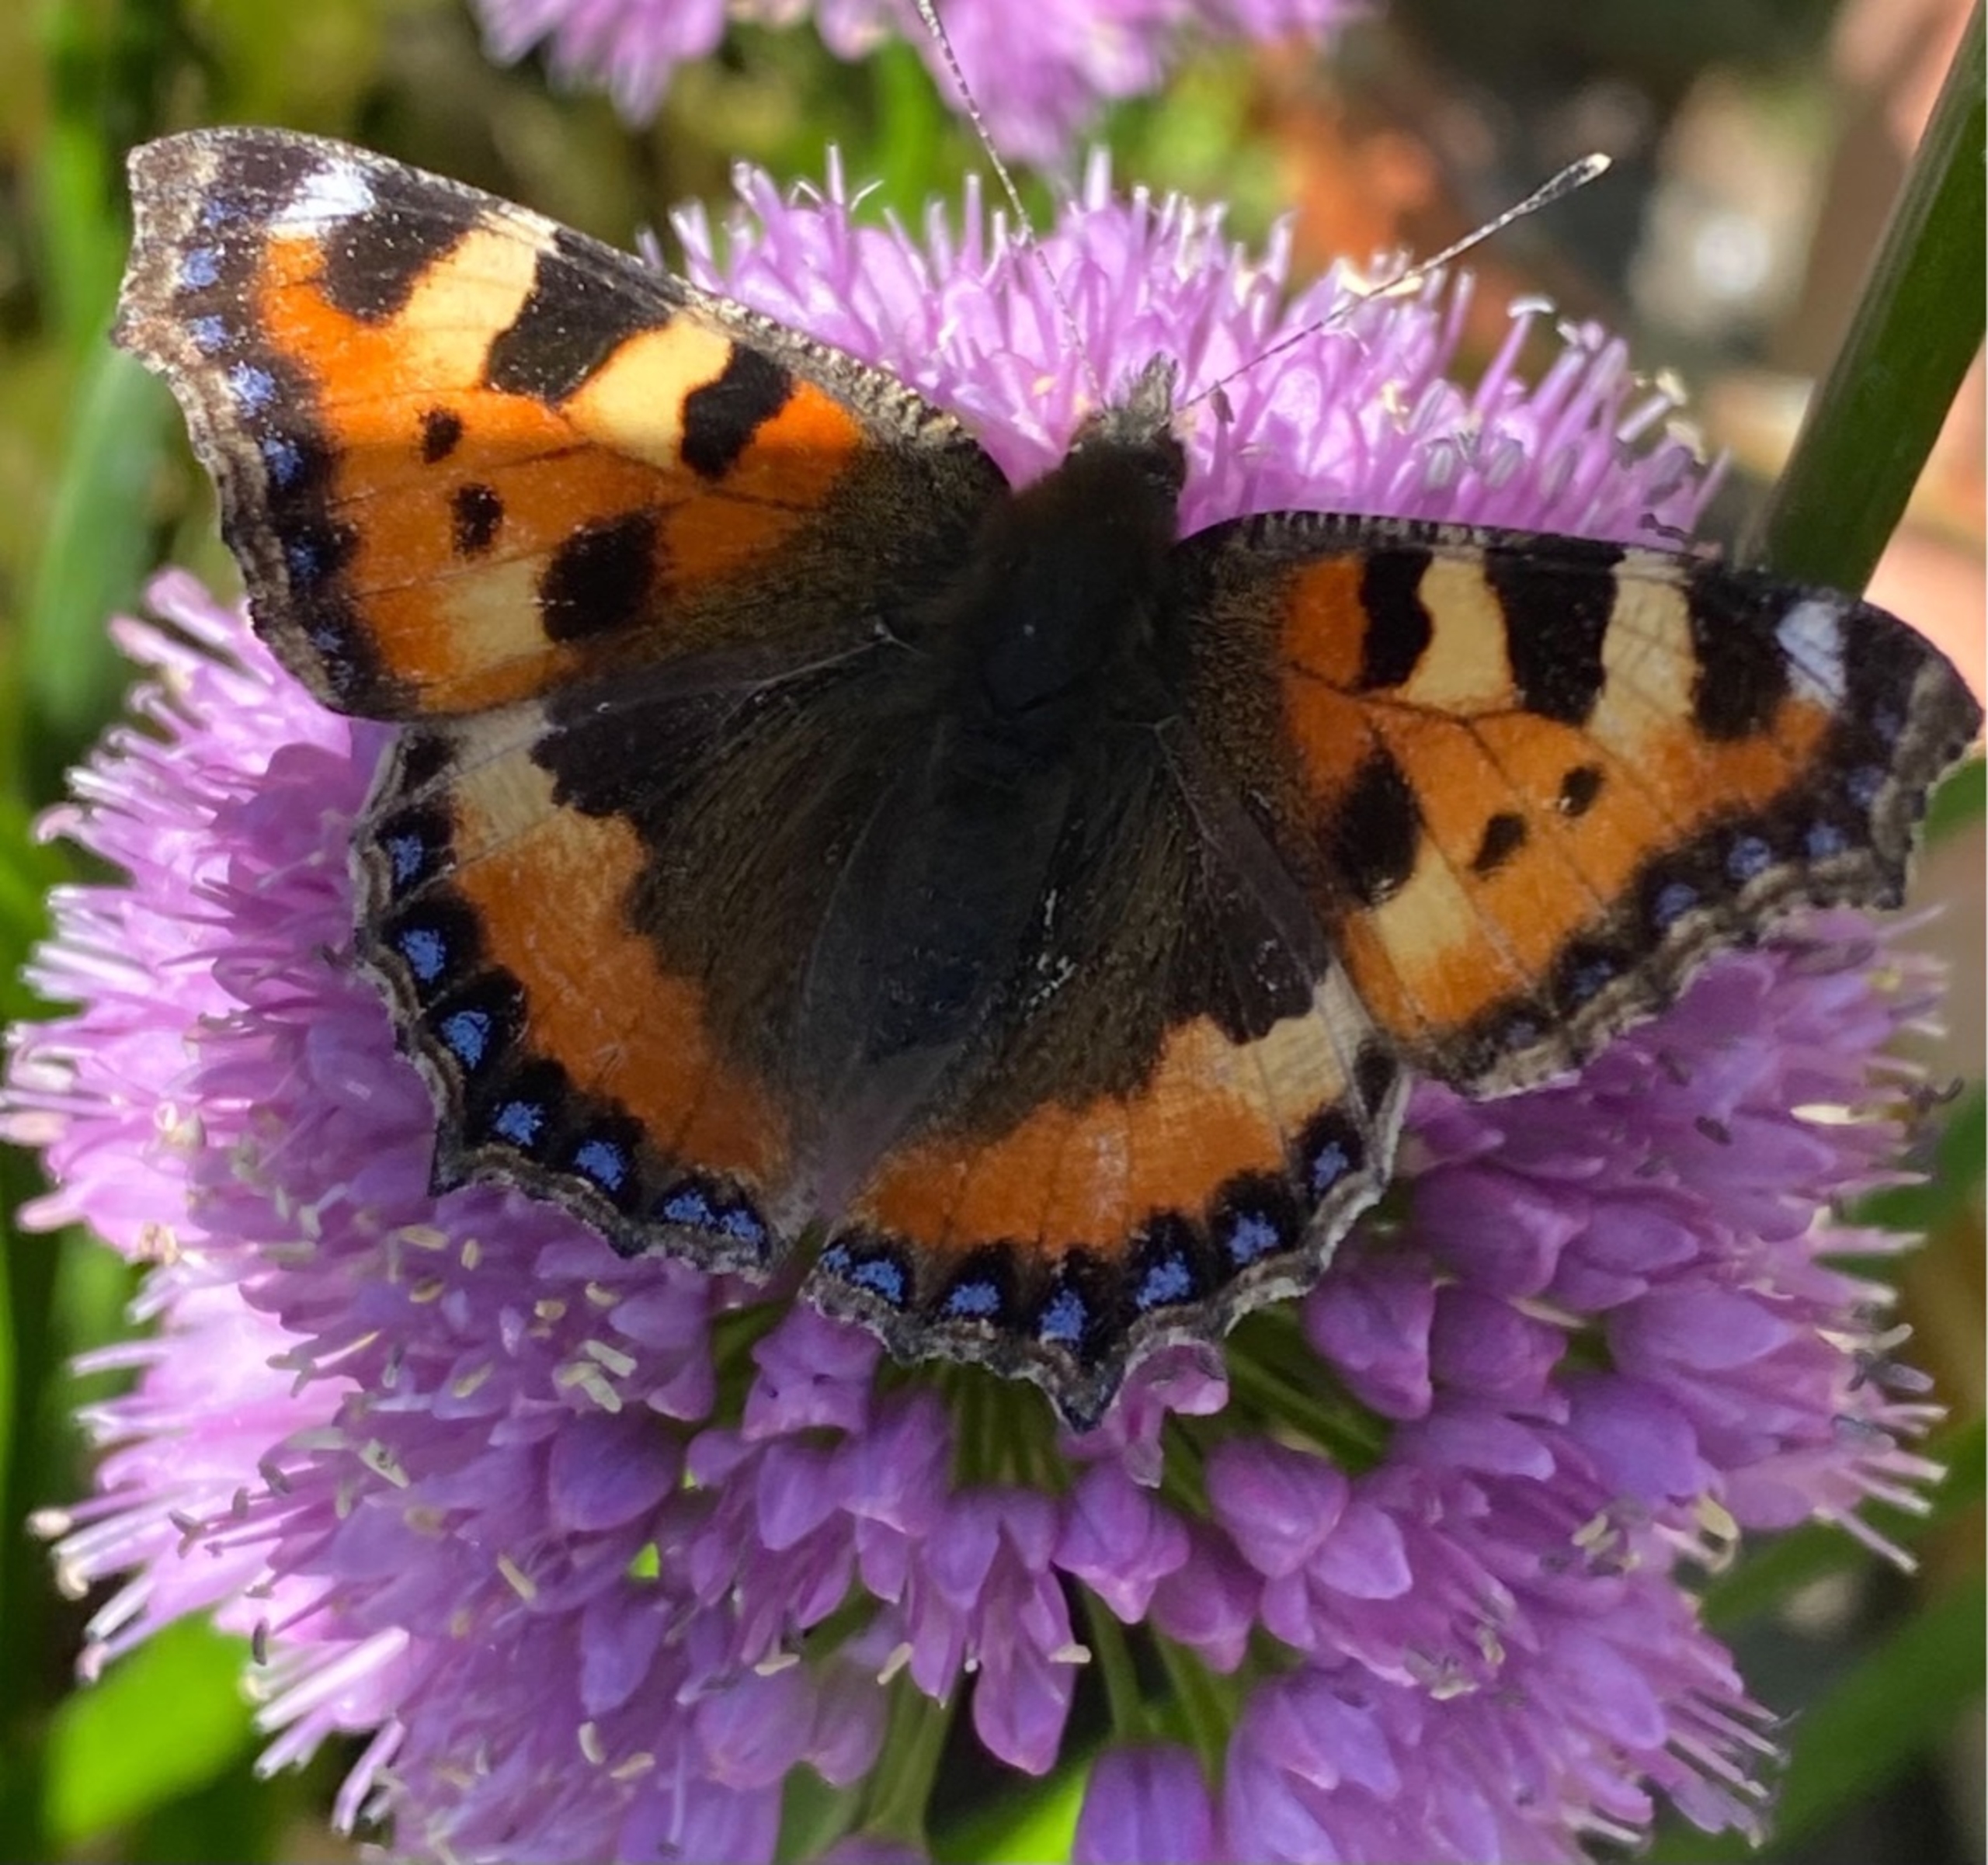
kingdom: Animalia
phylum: Arthropoda
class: Insecta
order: Lepidoptera
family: Nymphalidae
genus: Aglais
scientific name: Aglais urticae
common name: Nældens takvinge
